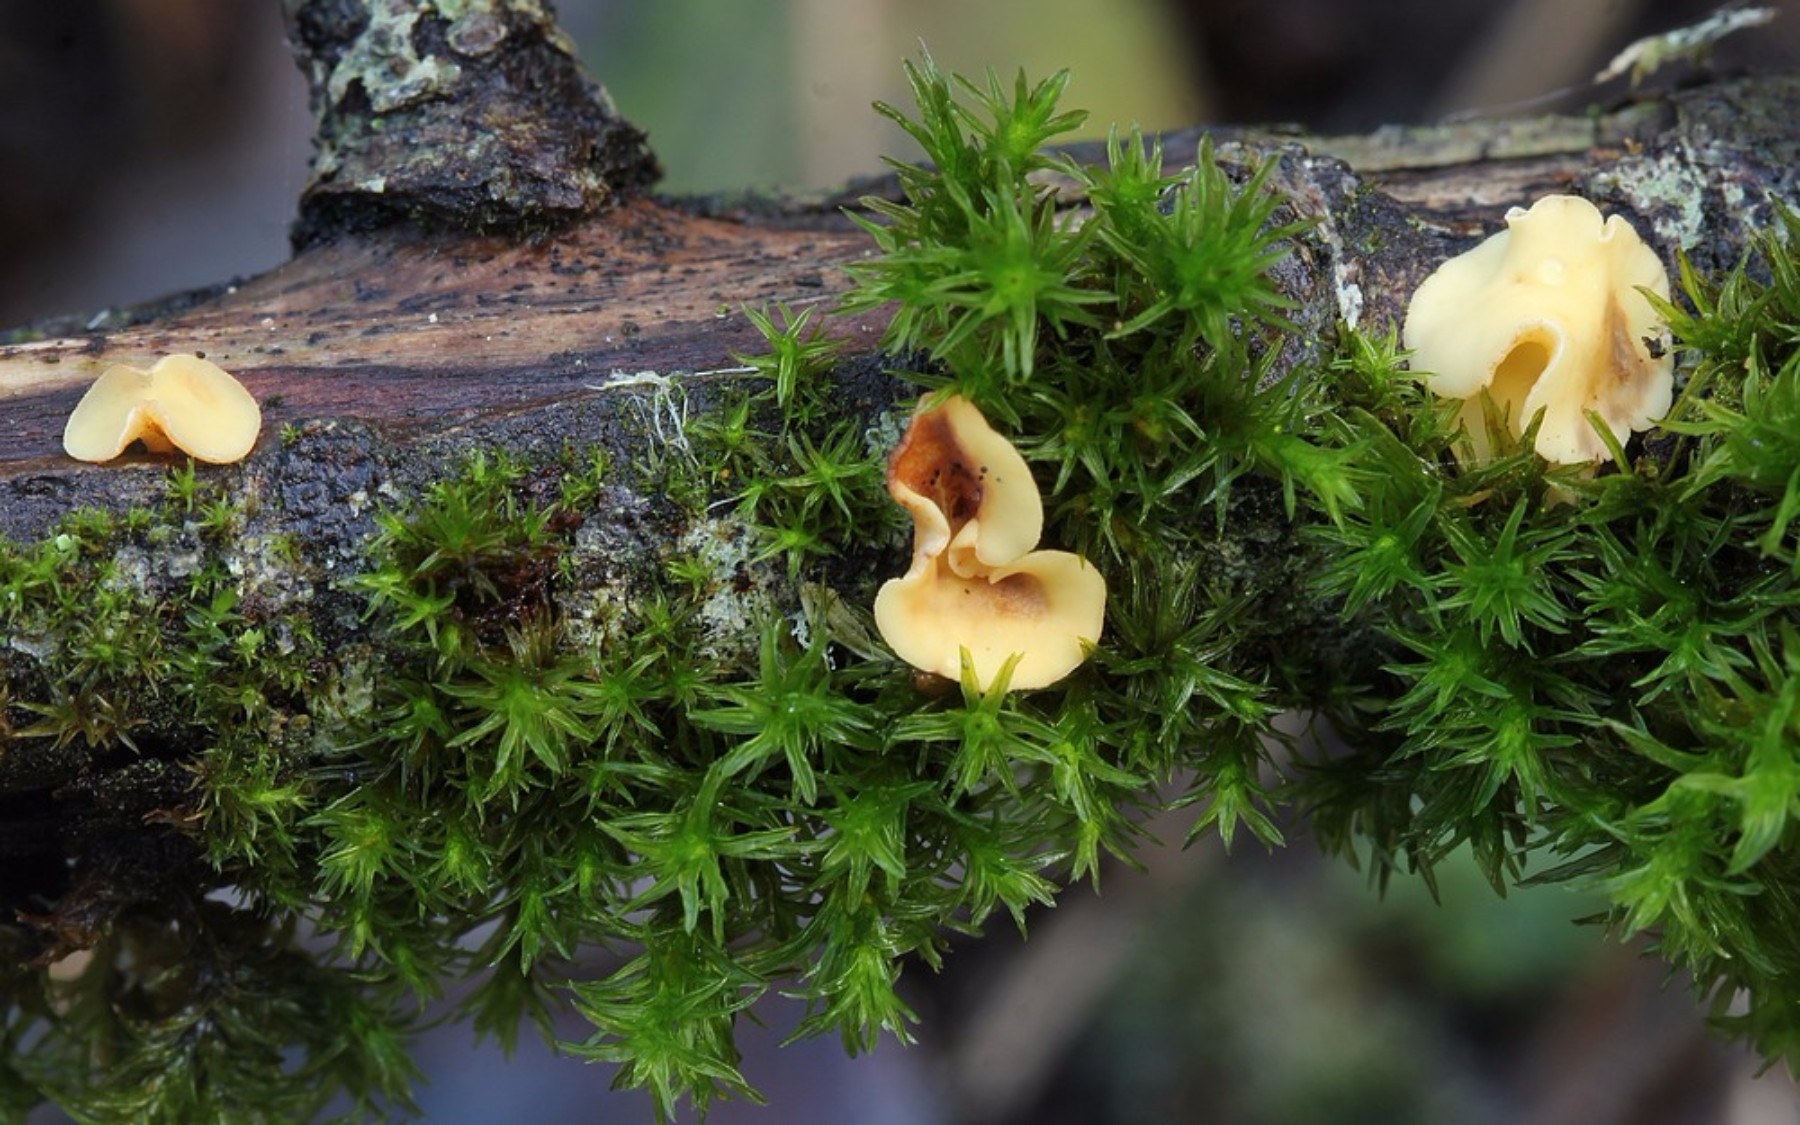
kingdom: Fungi
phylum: Ascomycota
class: Leotiomycetes
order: Helotiales
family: Helotiaceae
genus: Hymenoscyphus
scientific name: Hymenoscyphus
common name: stilkskive
